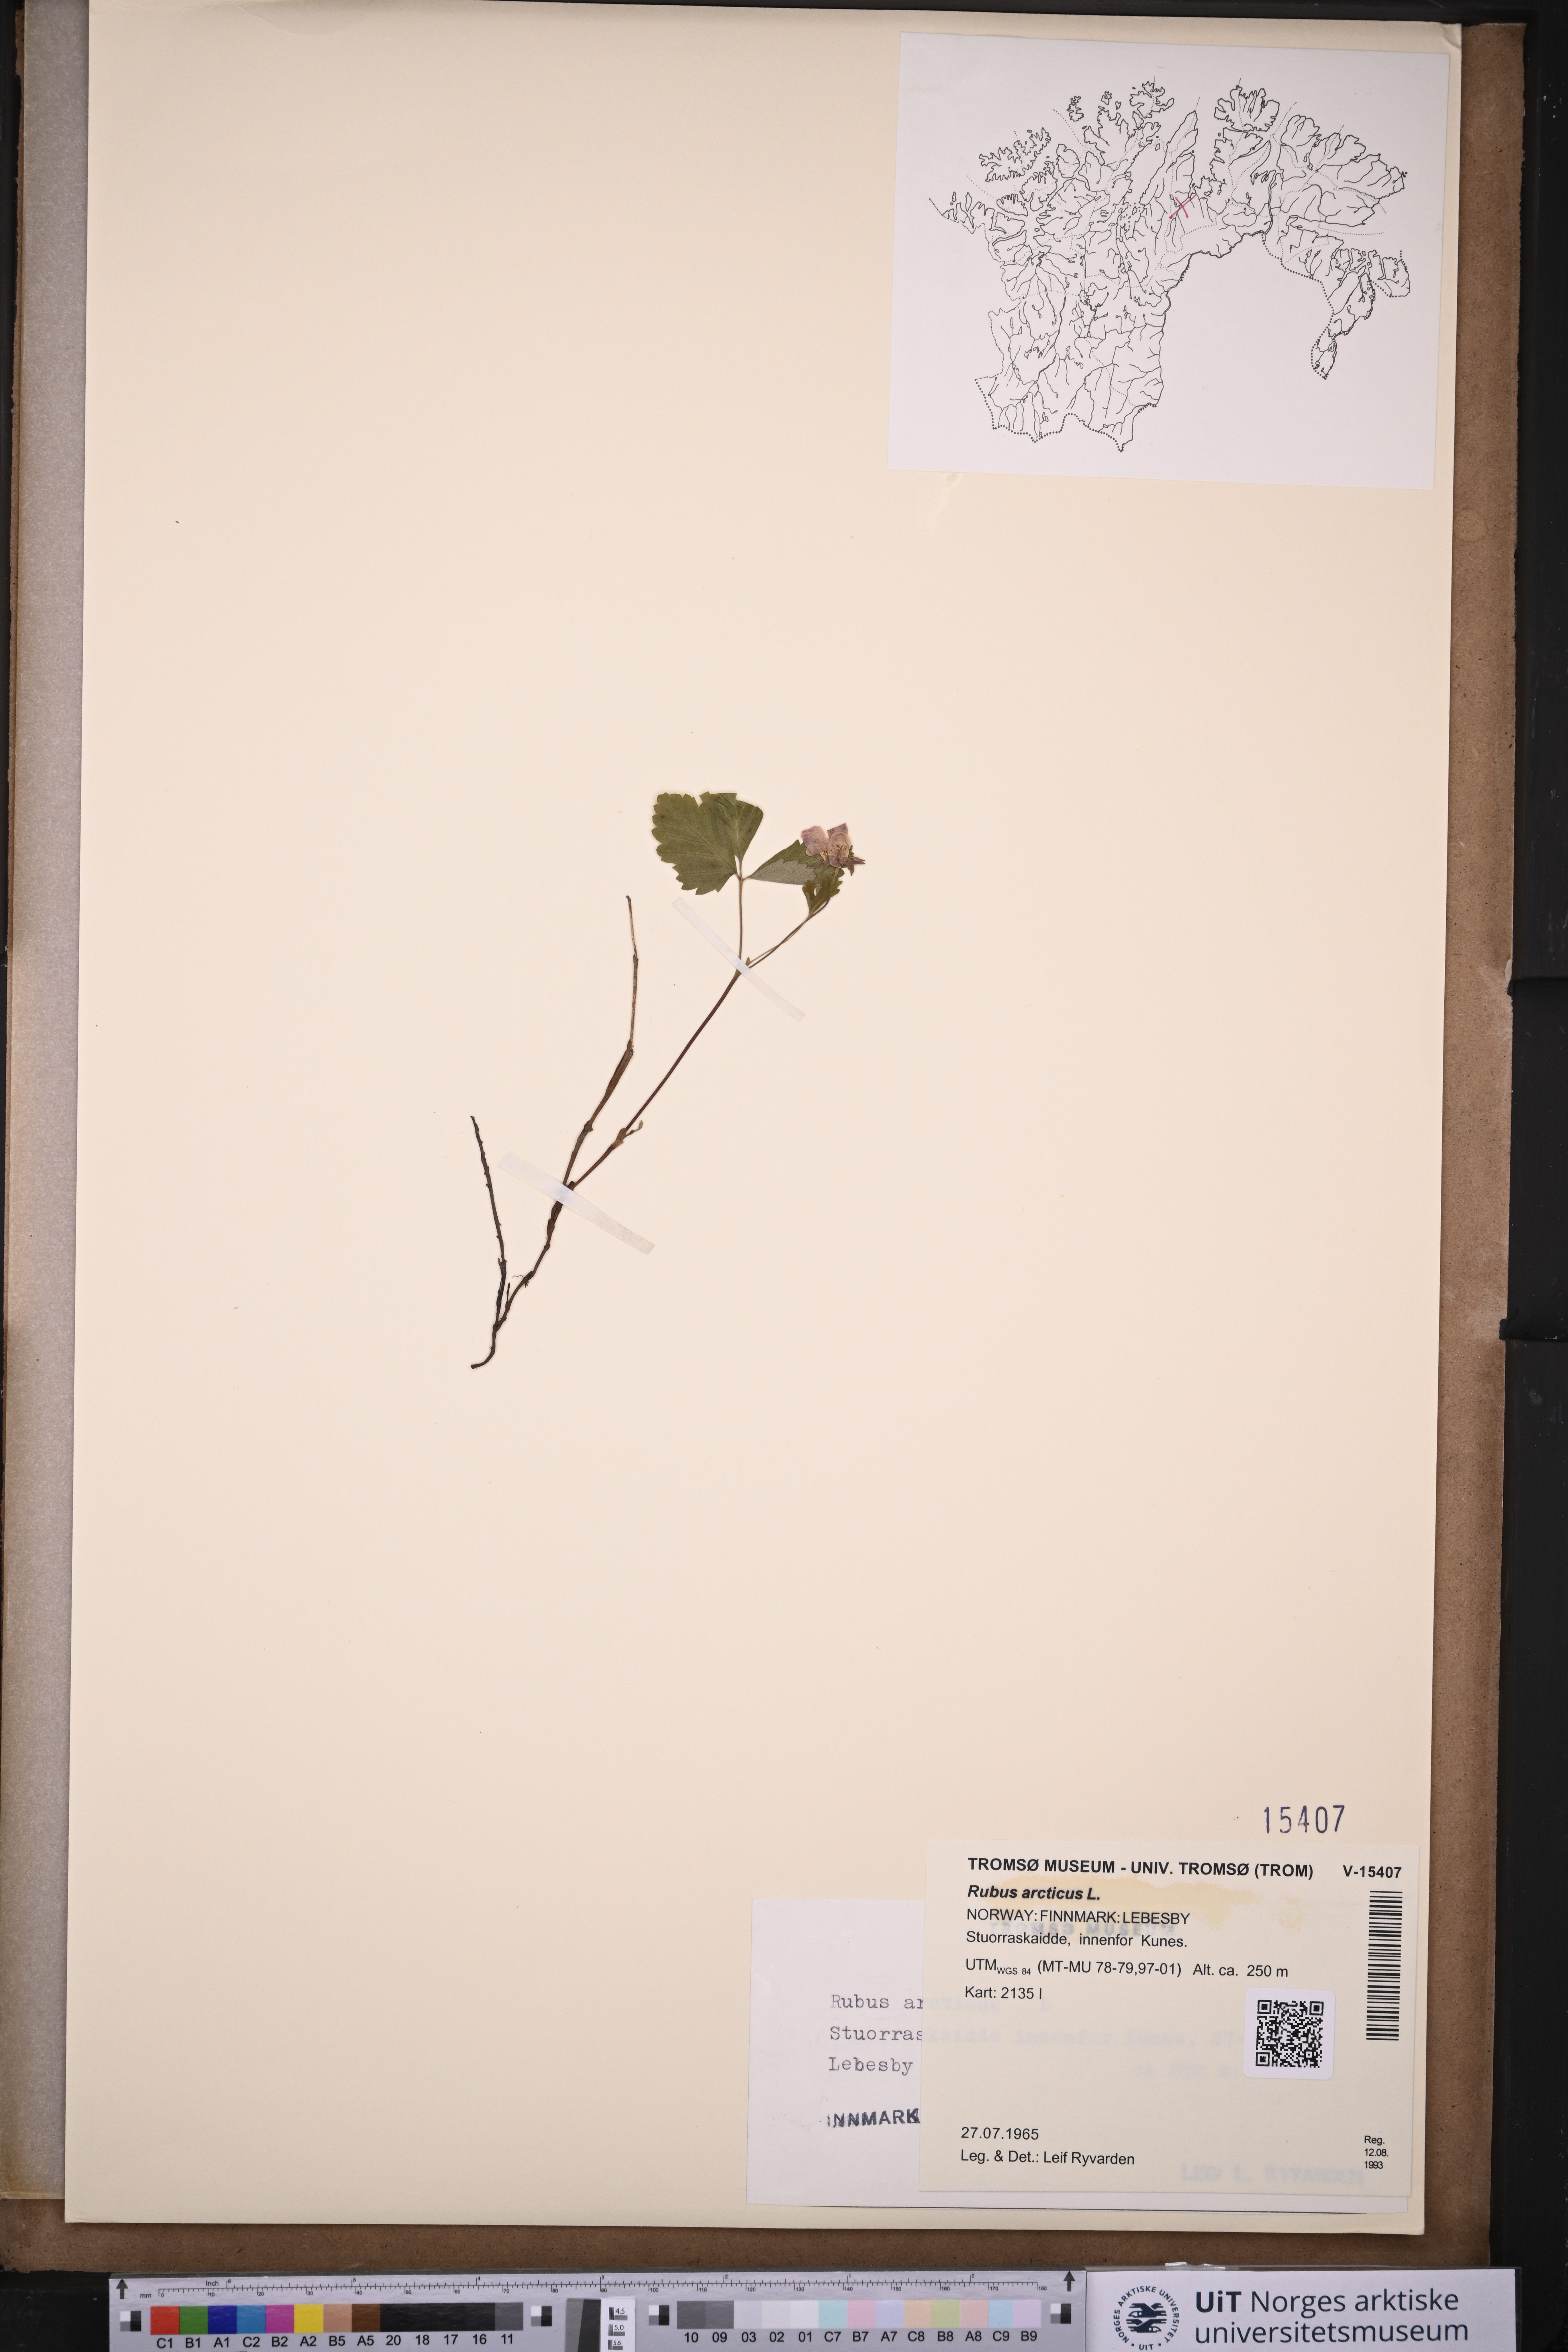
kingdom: Plantae
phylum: Tracheophyta
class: Magnoliopsida
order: Rosales
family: Rosaceae
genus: Rubus
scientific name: Rubus arcticus
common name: Arctic bramble
